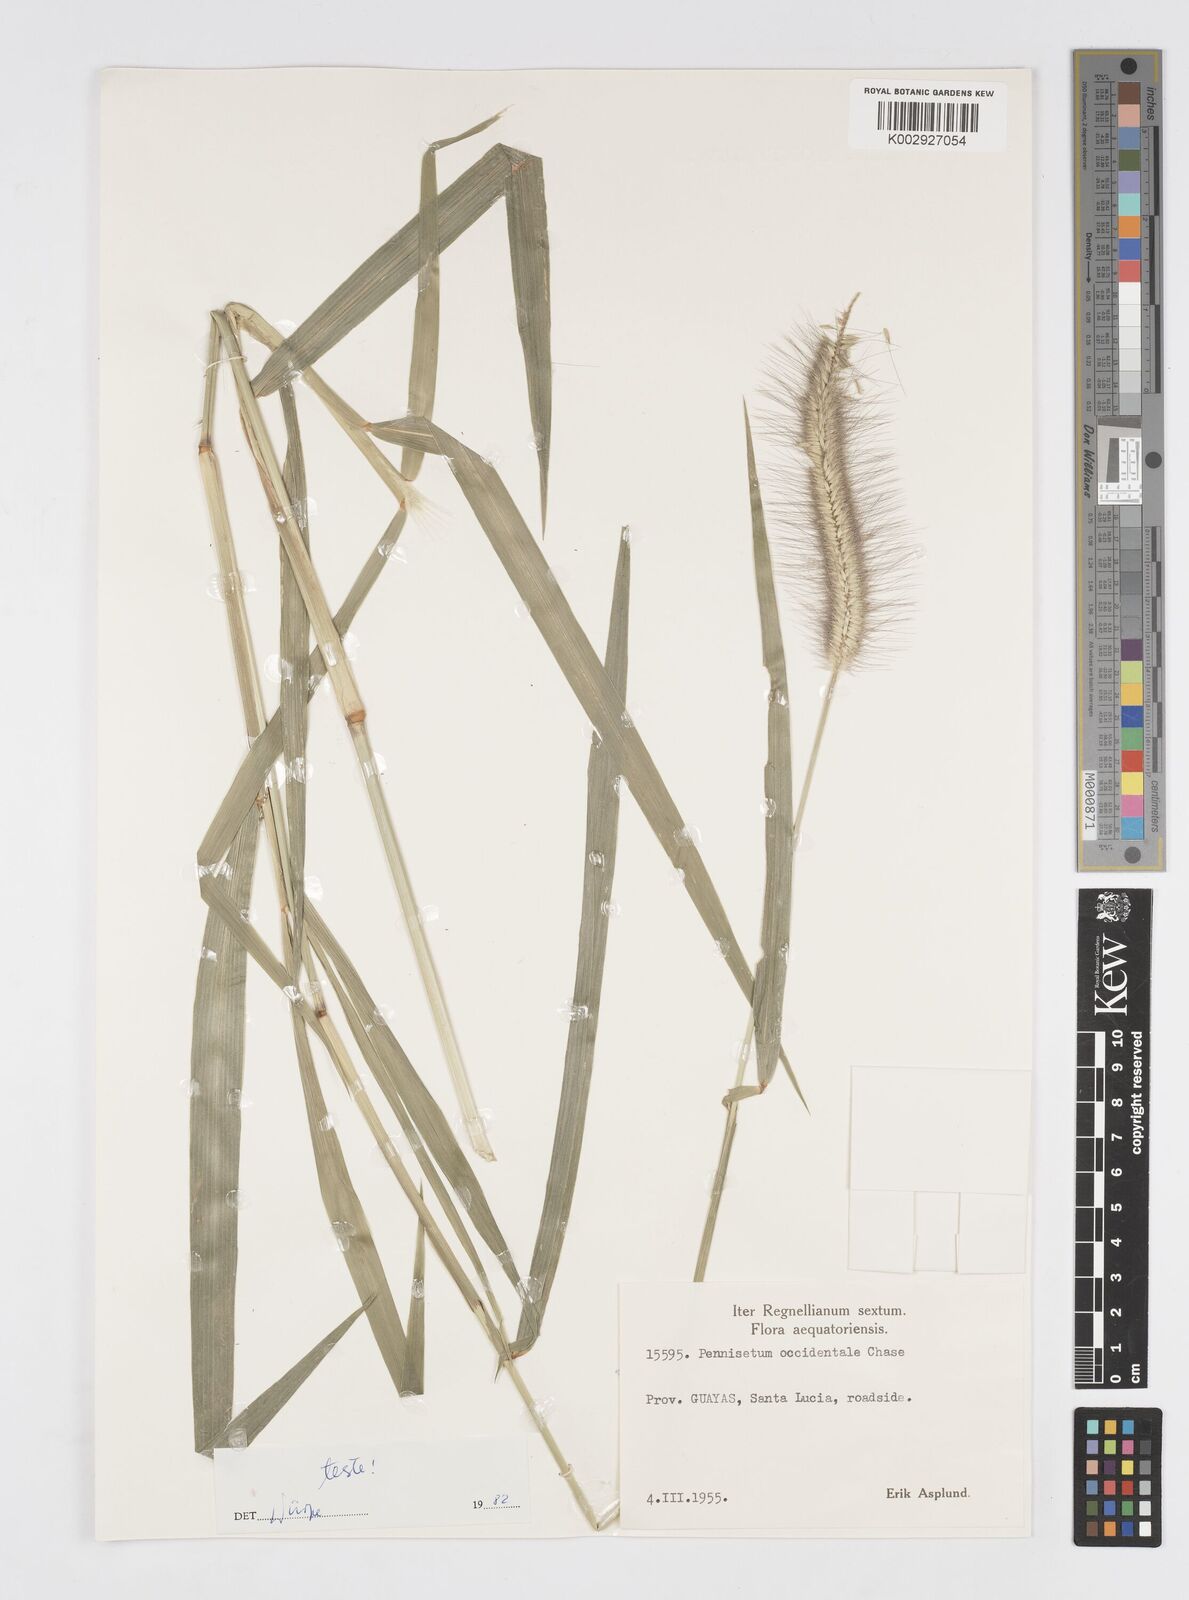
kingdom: Plantae
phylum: Tracheophyta
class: Liliopsida
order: Poales
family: Poaceae
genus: Cenchrus
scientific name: Cenchrus occidentalis
